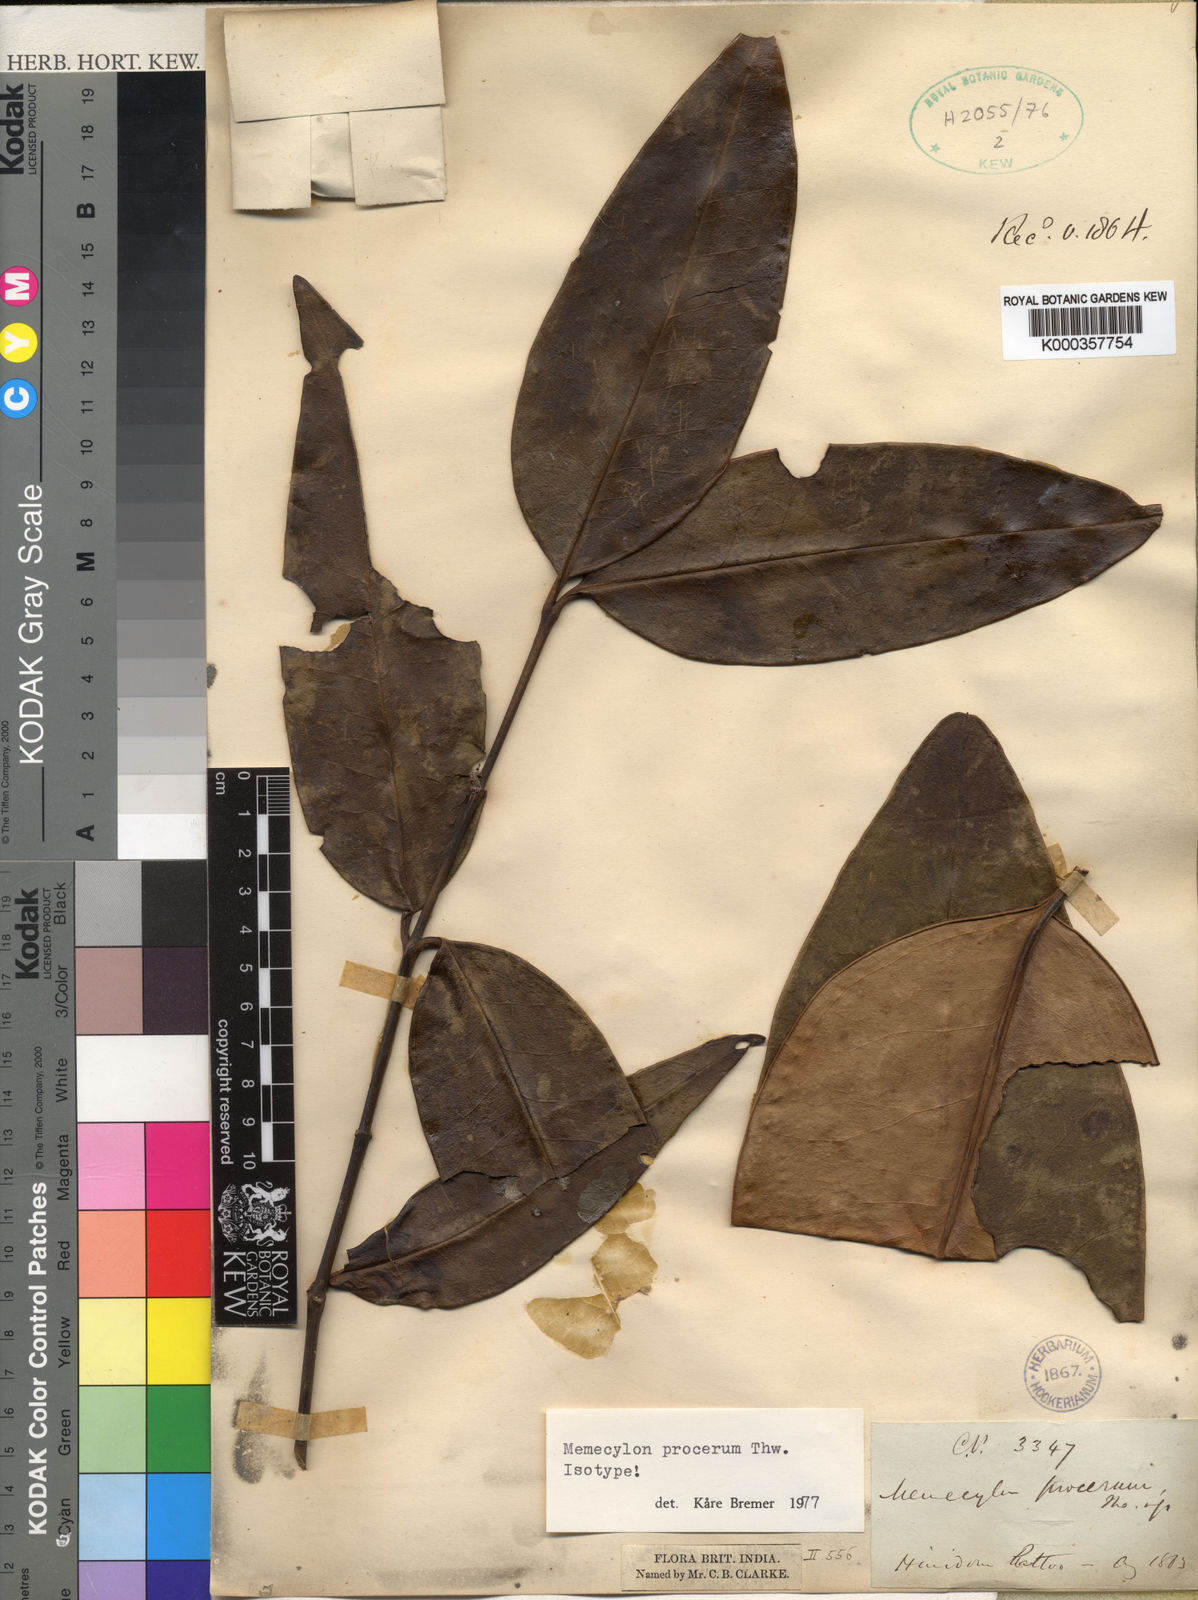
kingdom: Plantae
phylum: Tracheophyta
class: Magnoliopsida
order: Myrtales
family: Melastomataceae
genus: Memecylon
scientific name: Memecylon procerum
